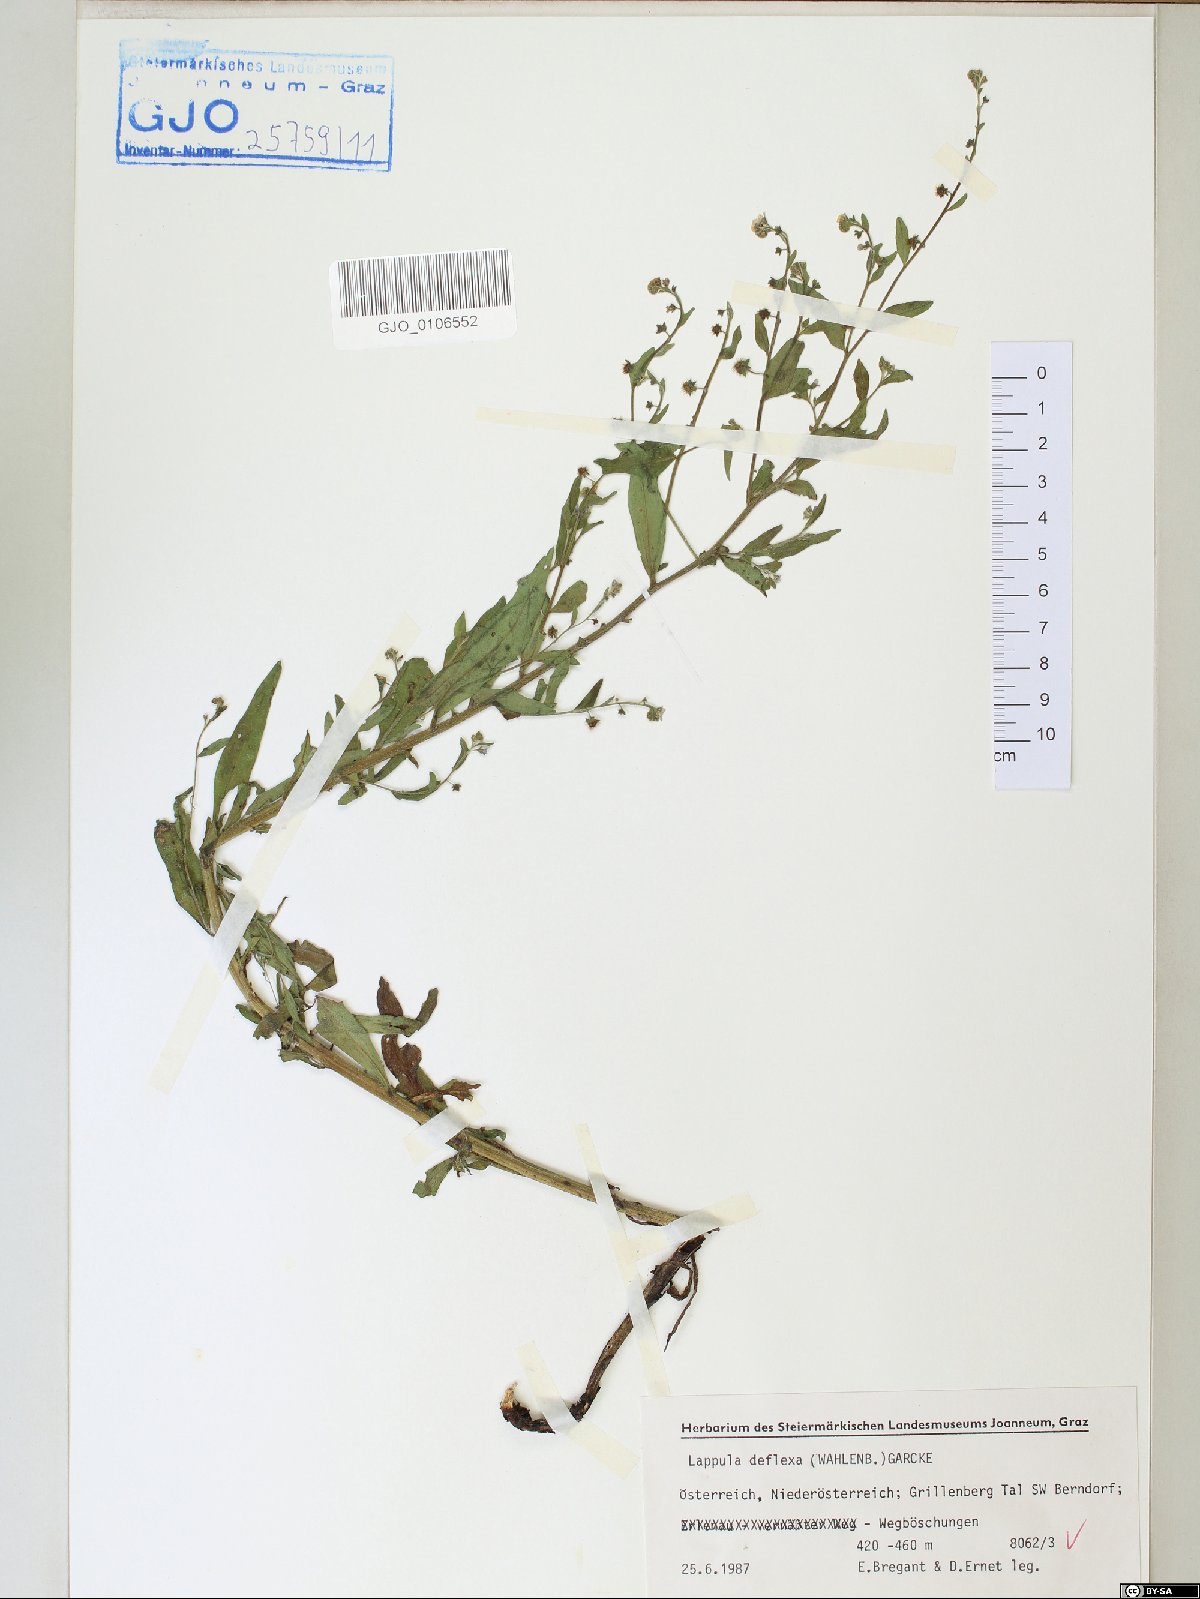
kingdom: Plantae
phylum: Tracheophyta
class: Magnoliopsida
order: Boraginales
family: Boraginaceae
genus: Hackelia
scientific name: Hackelia deflexa
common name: Nodding stickseed
